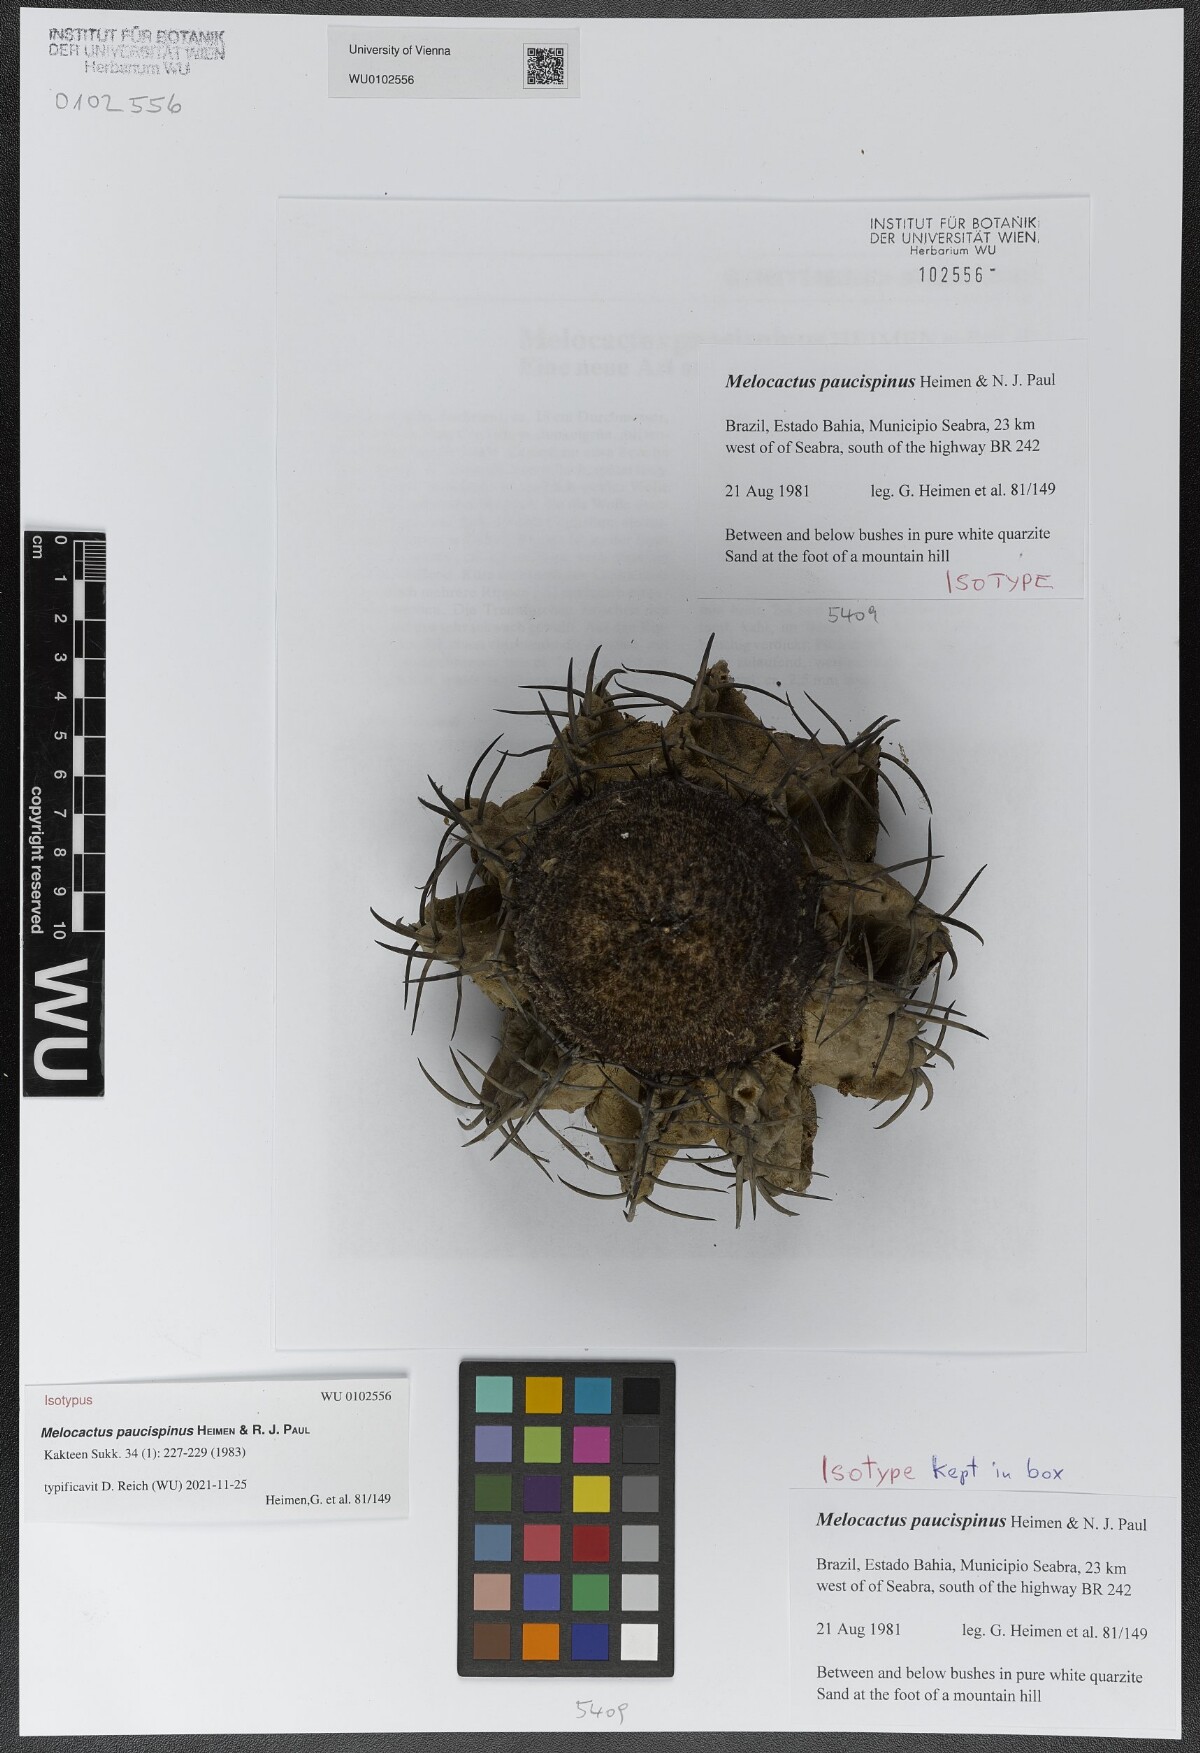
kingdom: Plantae
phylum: Tracheophyta
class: Magnoliopsida
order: Caryophyllales
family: Cactaceae
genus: Melocactus
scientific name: Melocactus paucispinus
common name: Few-spine turk's-cap cactus
